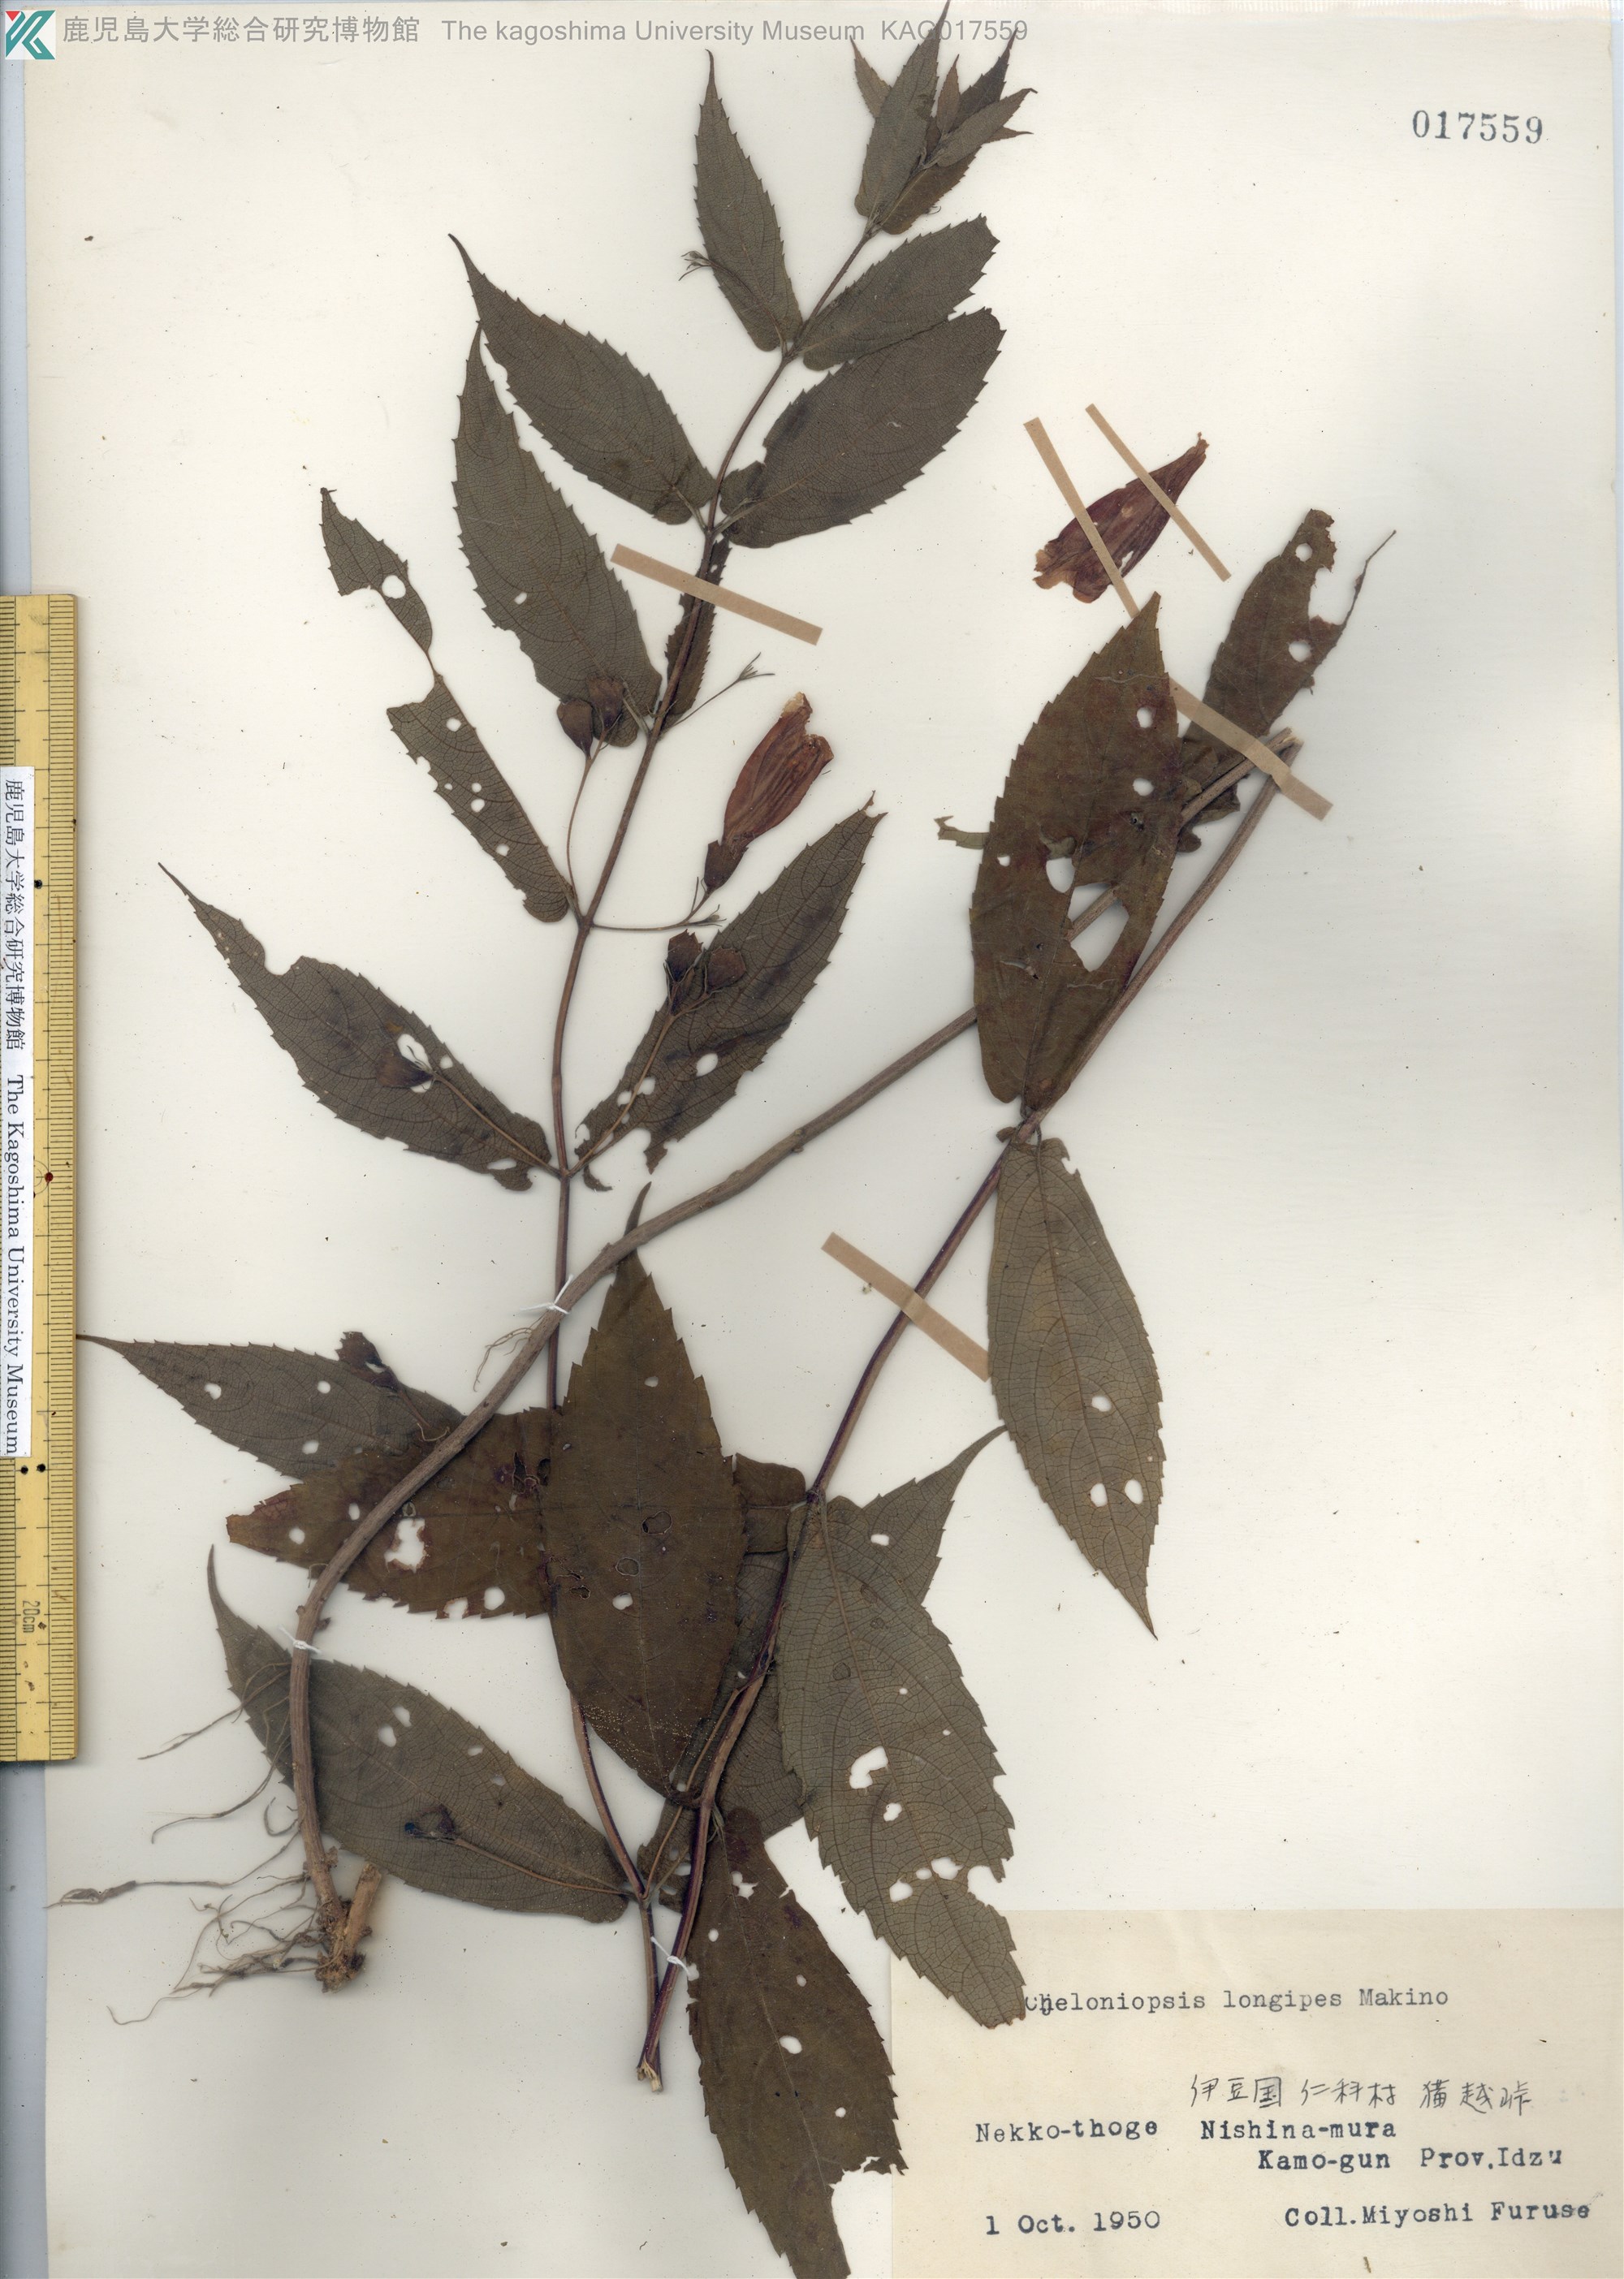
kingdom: Plantae
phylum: Tracheophyta
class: Magnoliopsida
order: Lamiales
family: Lamiaceae
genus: Chelonopsis
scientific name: Chelonopsis longipes
